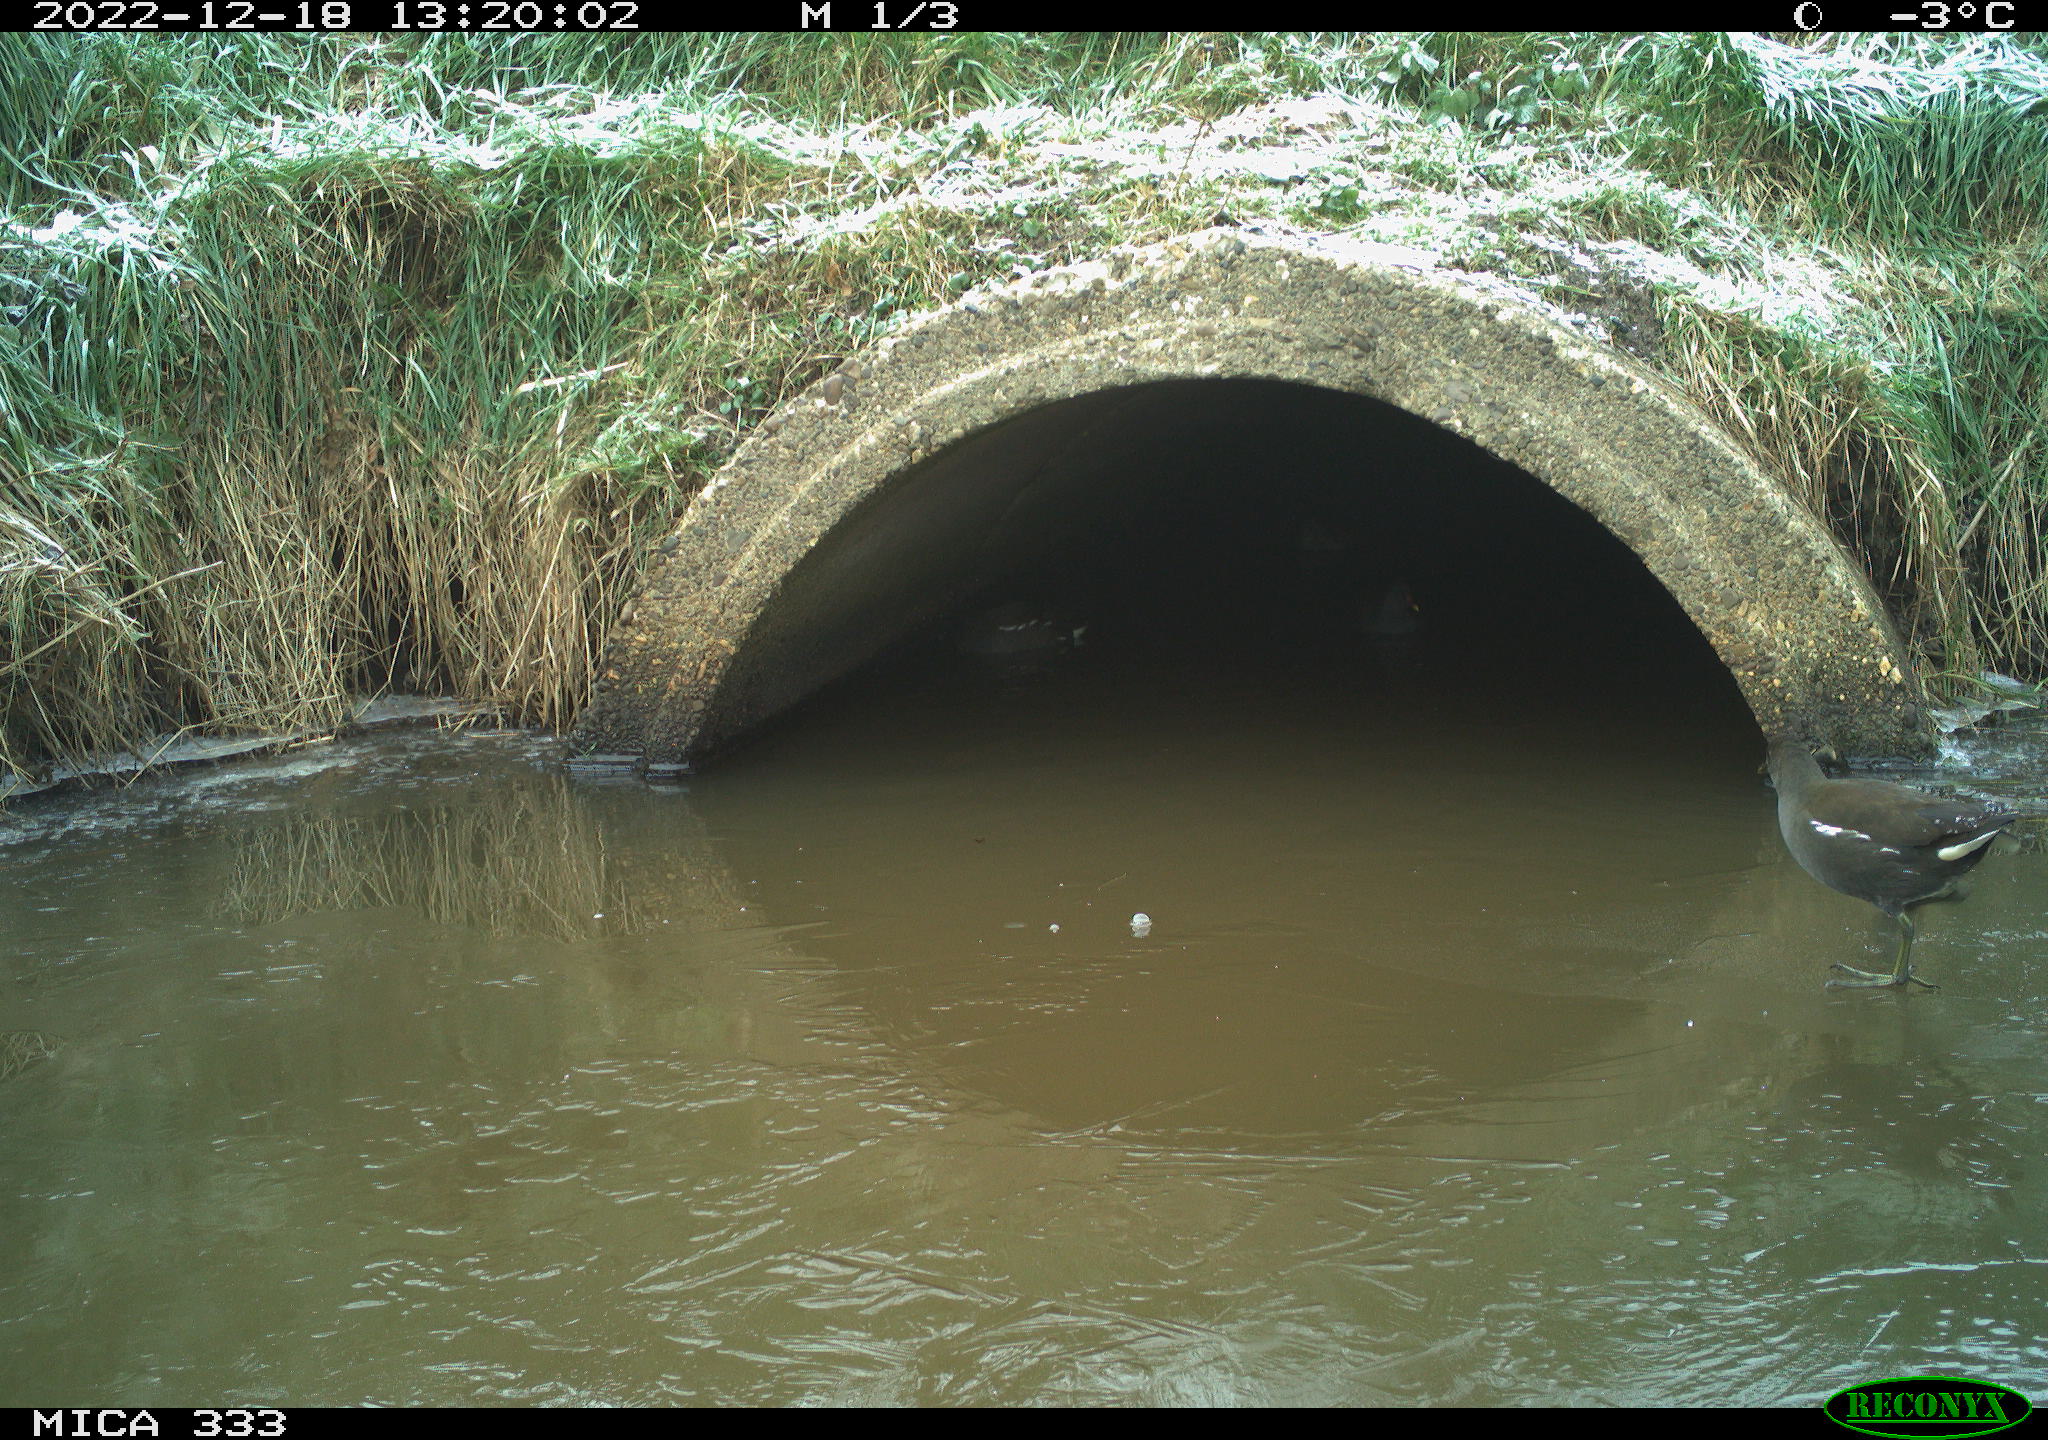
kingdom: Animalia
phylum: Chordata
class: Aves
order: Gruiformes
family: Rallidae
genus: Gallinula
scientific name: Gallinula chloropus
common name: Common moorhen
